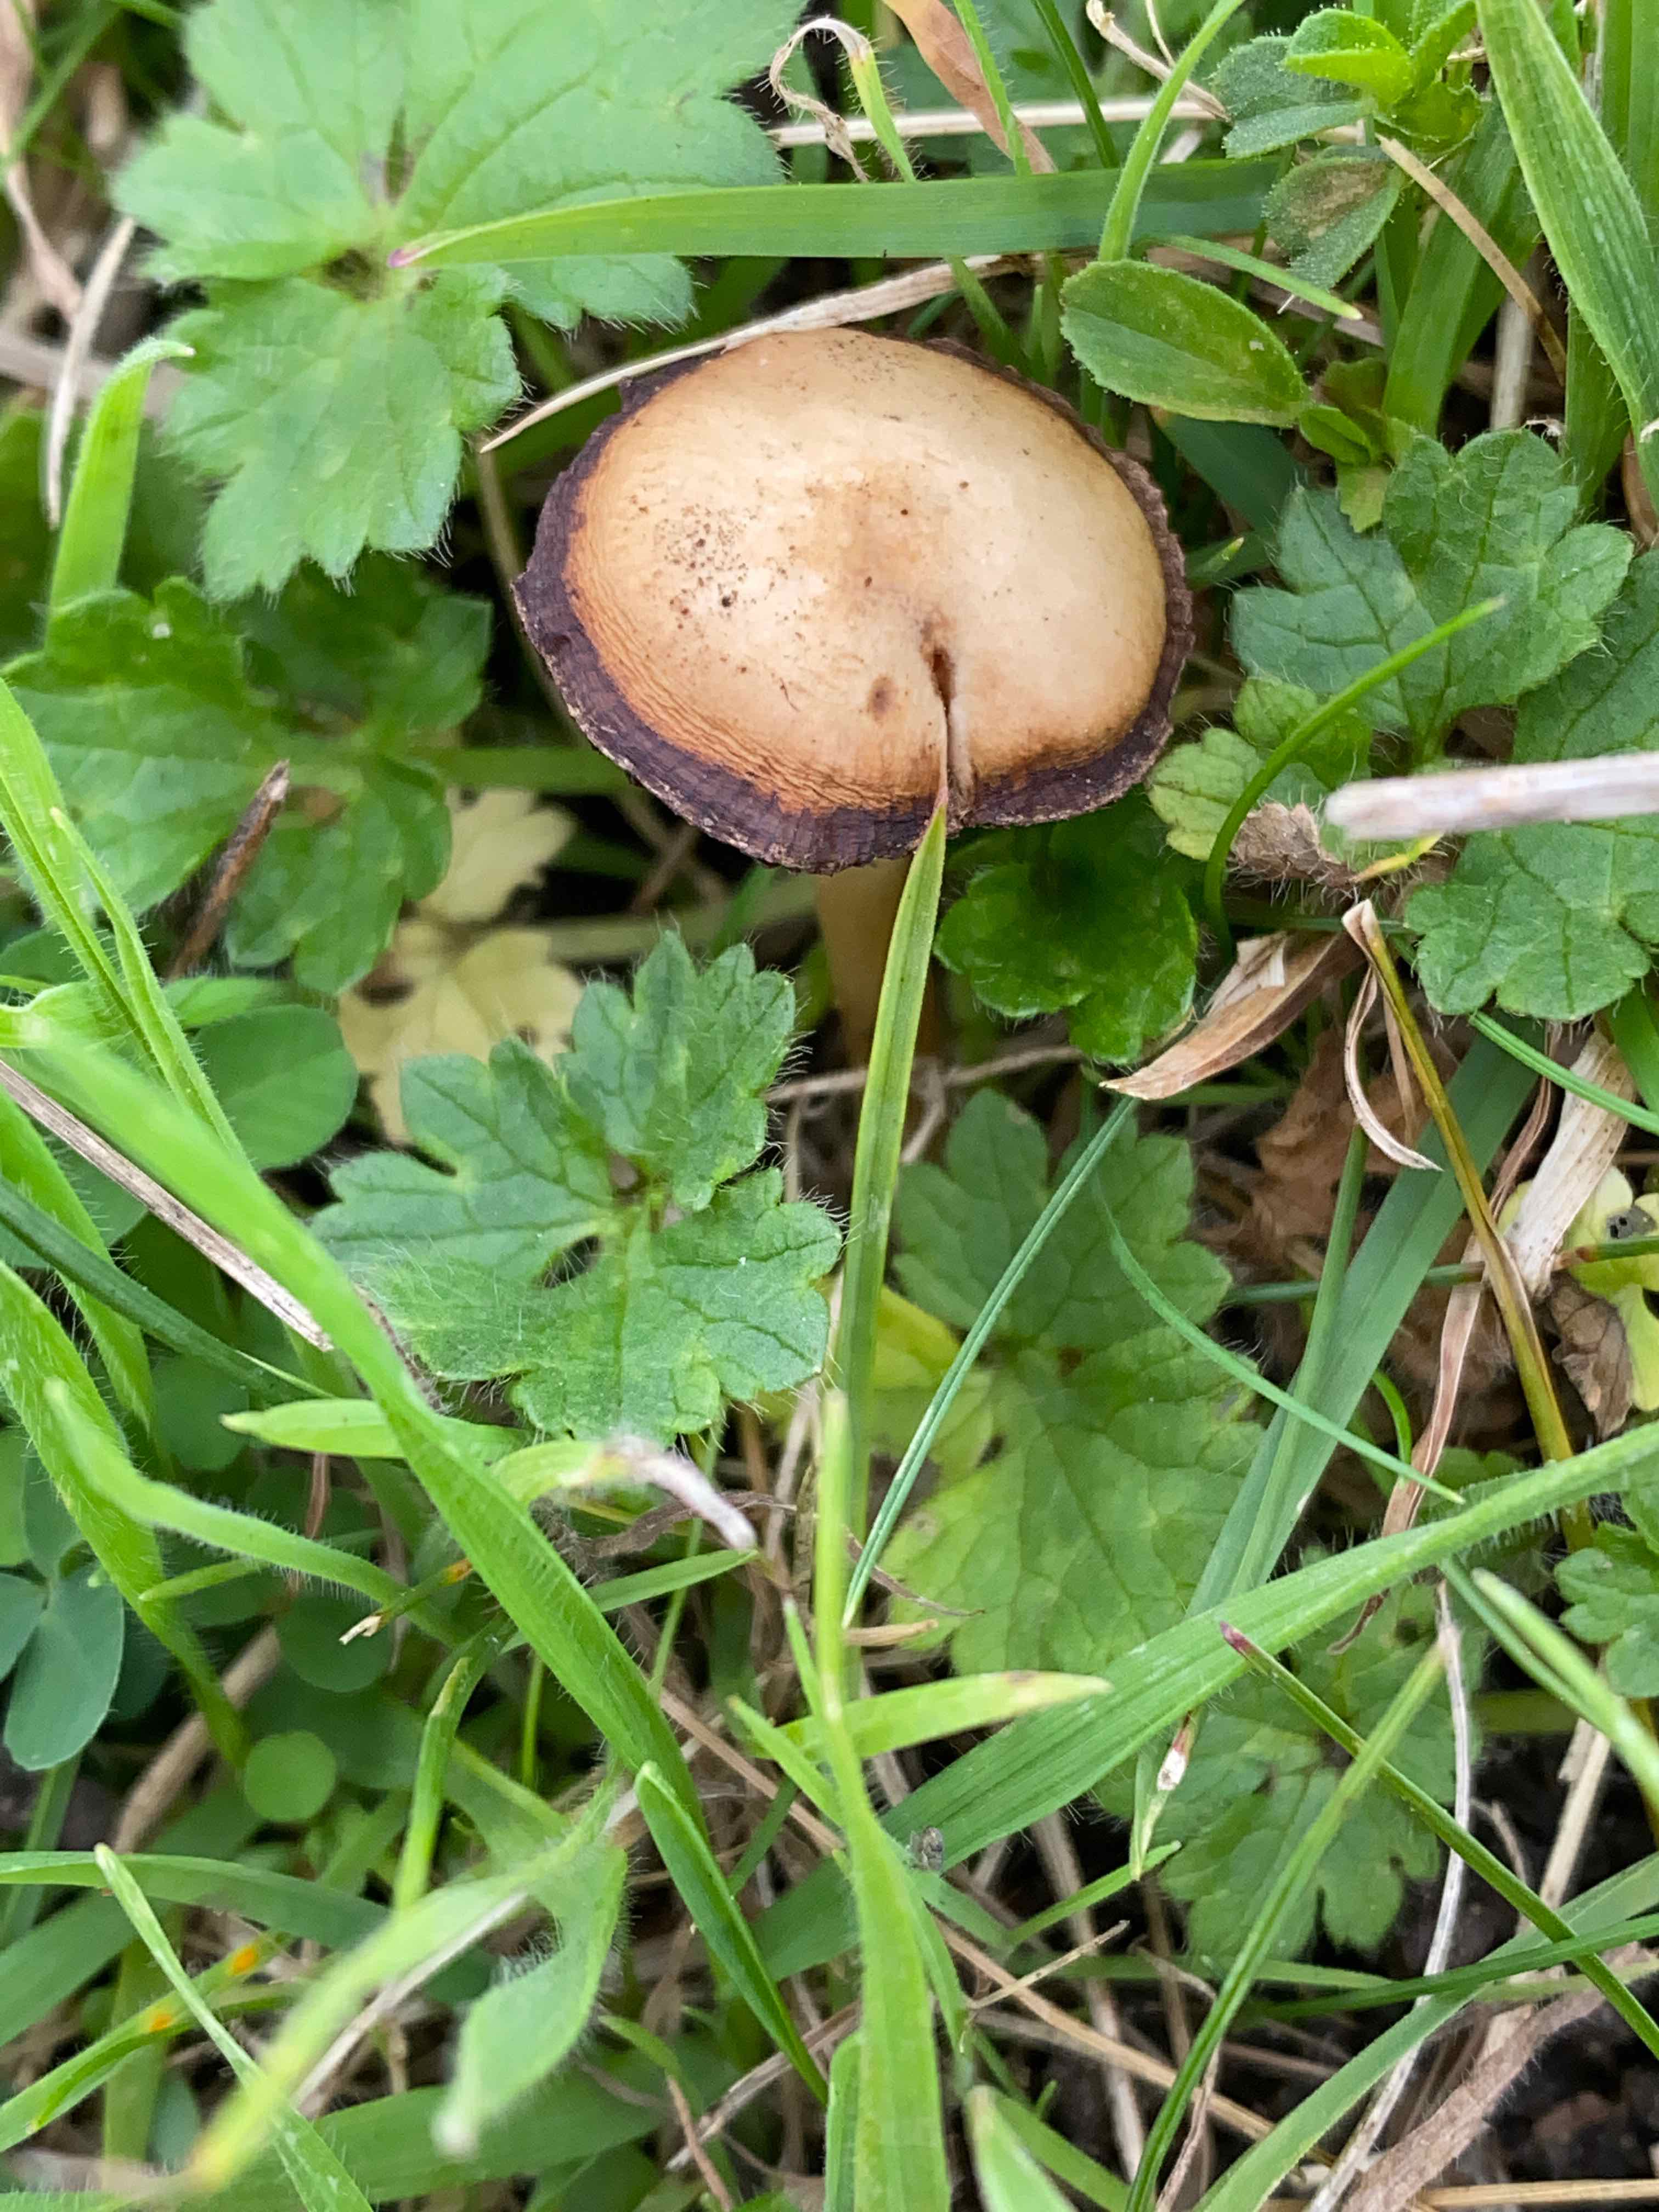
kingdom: Fungi
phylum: Basidiomycota
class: Agaricomycetes
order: Agaricales
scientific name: Agaricales
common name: champignonordenen
